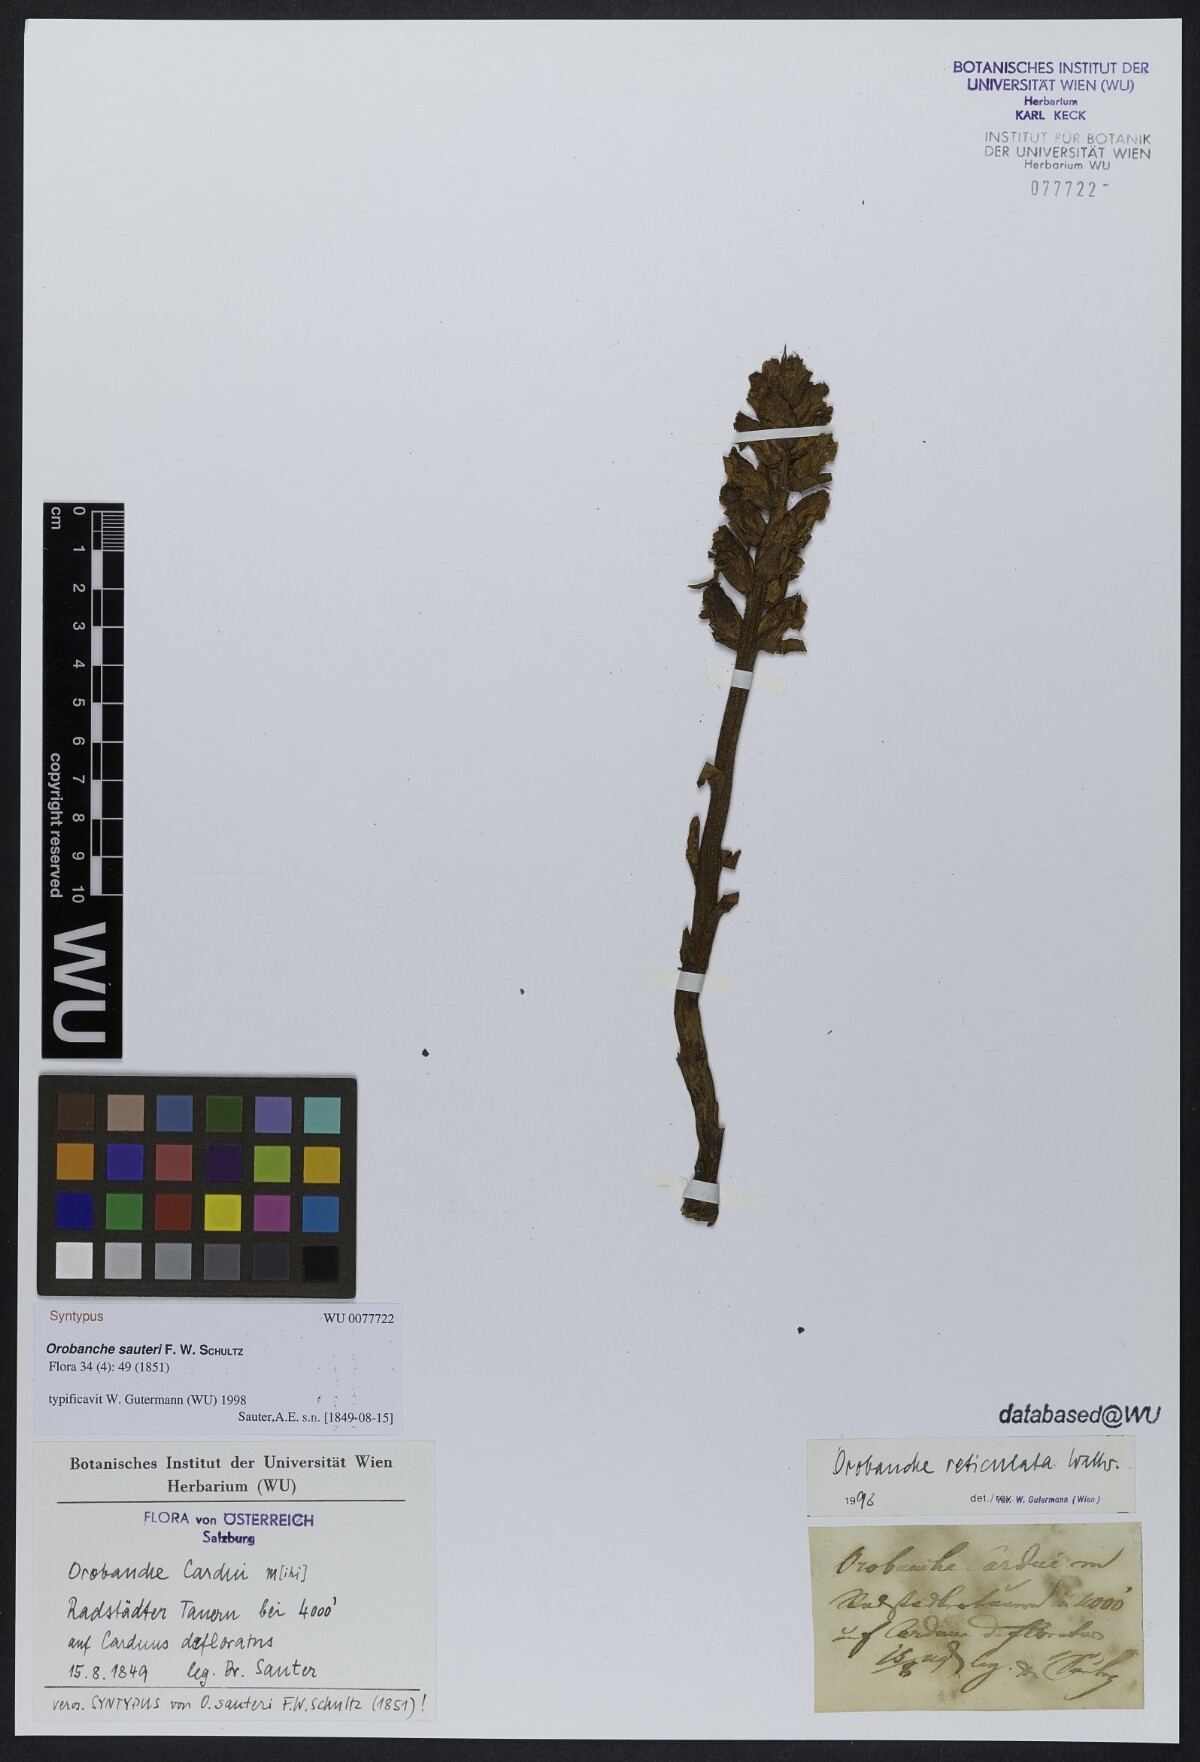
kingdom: Plantae
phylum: Tracheophyta
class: Magnoliopsida
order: Lamiales
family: Orobanchaceae
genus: Orobanche
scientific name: Orobanche reticulata
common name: Thistle broomrape
